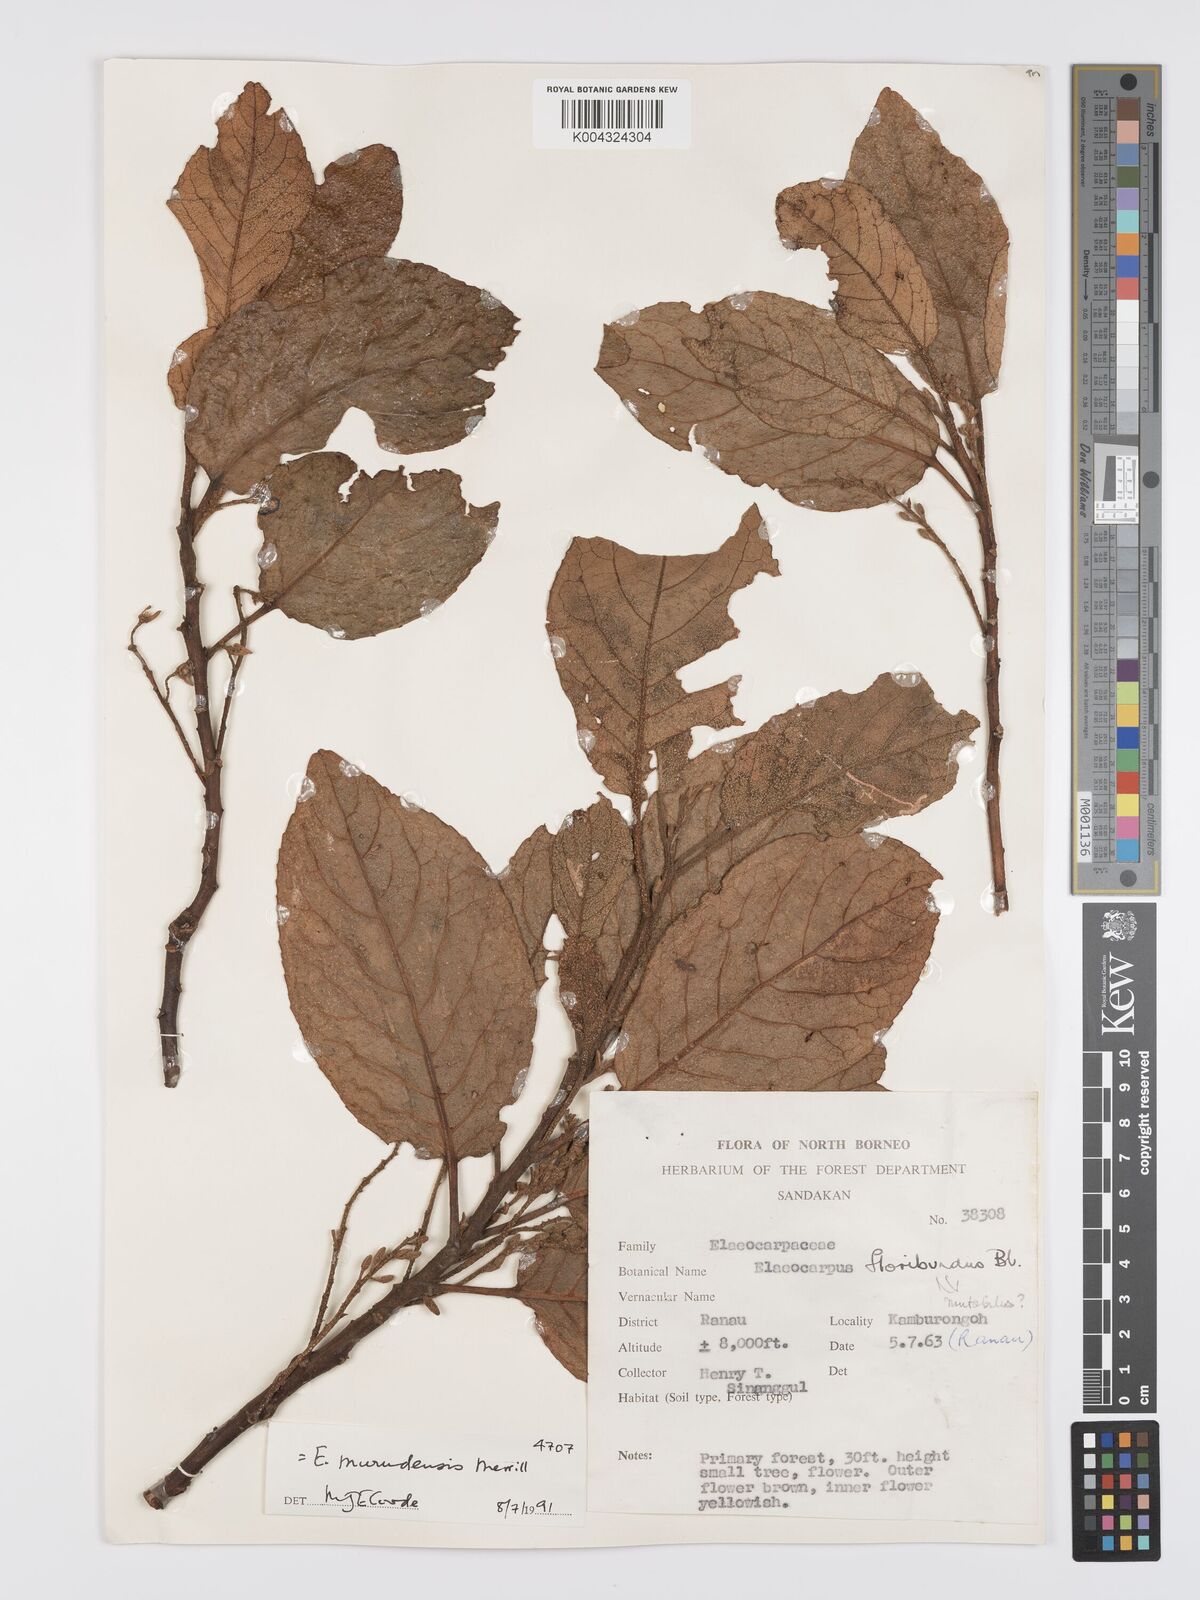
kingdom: Plantae
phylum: Tracheophyta
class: Magnoliopsida
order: Oxalidales
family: Elaeocarpaceae
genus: Elaeocarpus
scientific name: Elaeocarpus murudensis
